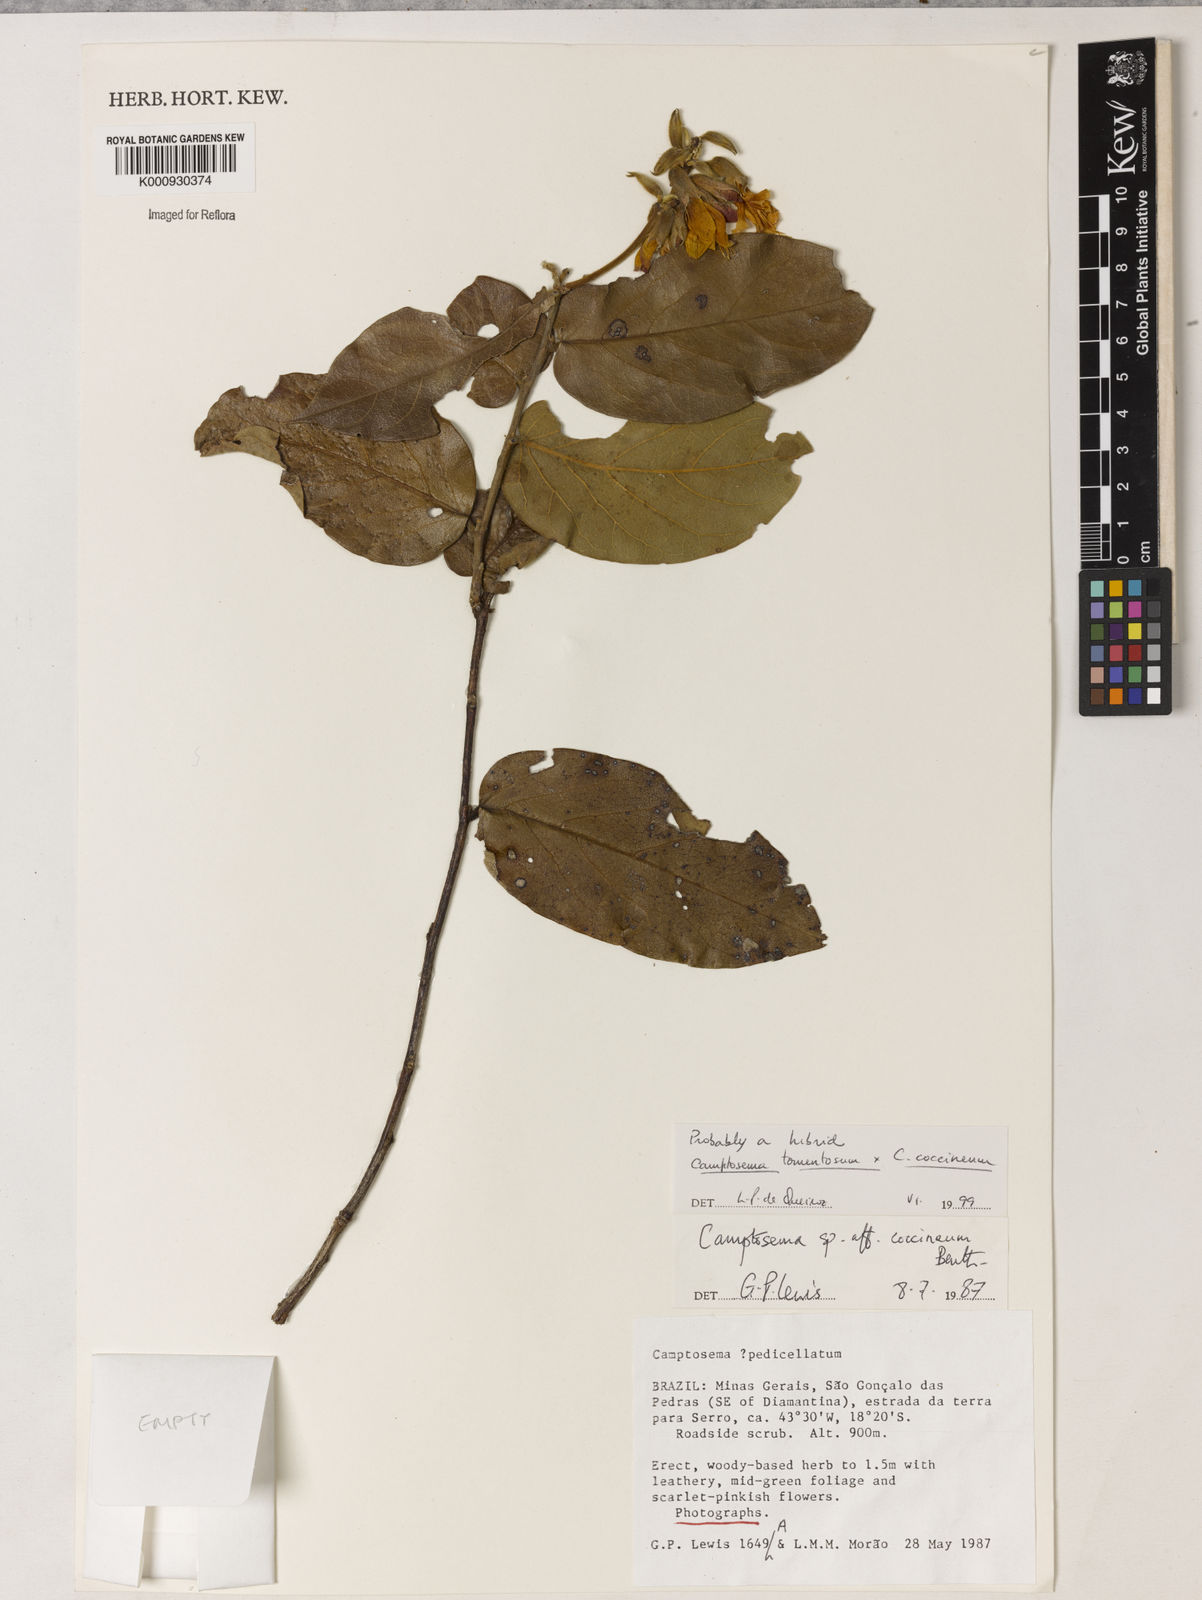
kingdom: Plantae
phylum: Tracheophyta
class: Magnoliopsida
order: Fabales
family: Fabaceae
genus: Camptosema
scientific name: Camptosema
